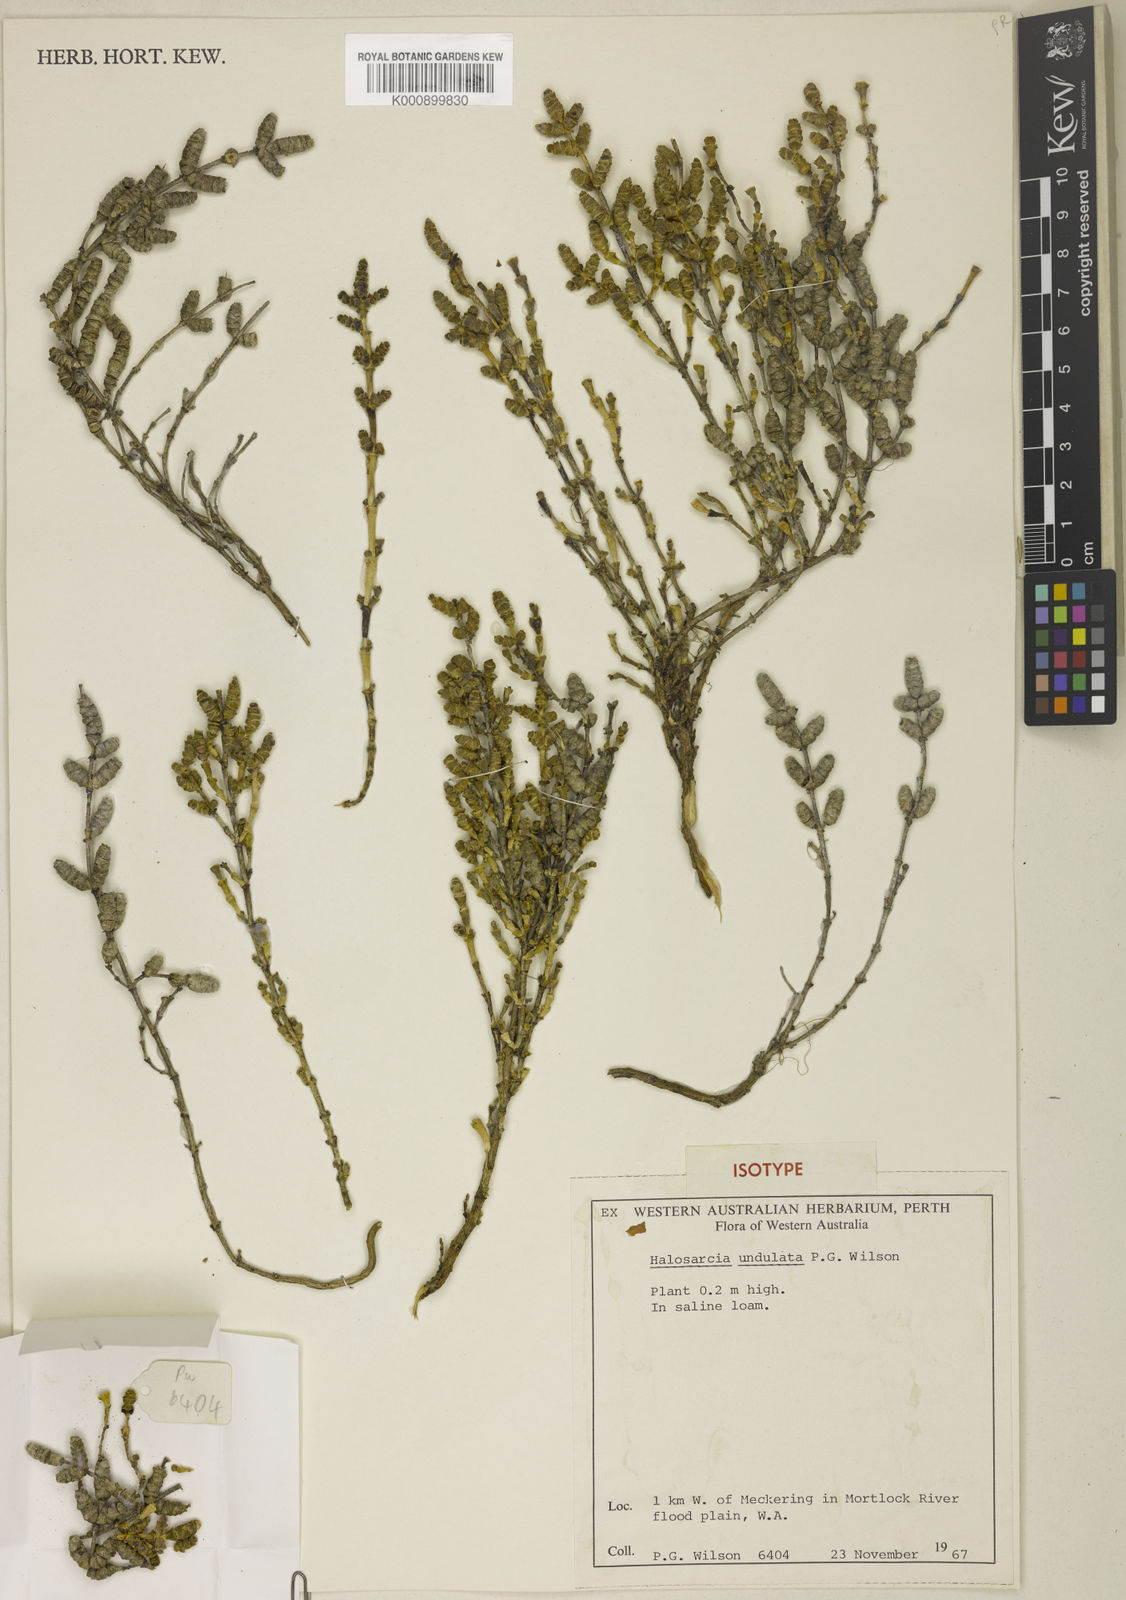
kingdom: Plantae
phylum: Tracheophyta
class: Magnoliopsida
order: Caryophyllales
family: Amaranthaceae
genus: Tecticornia
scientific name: Tecticornia undulata
